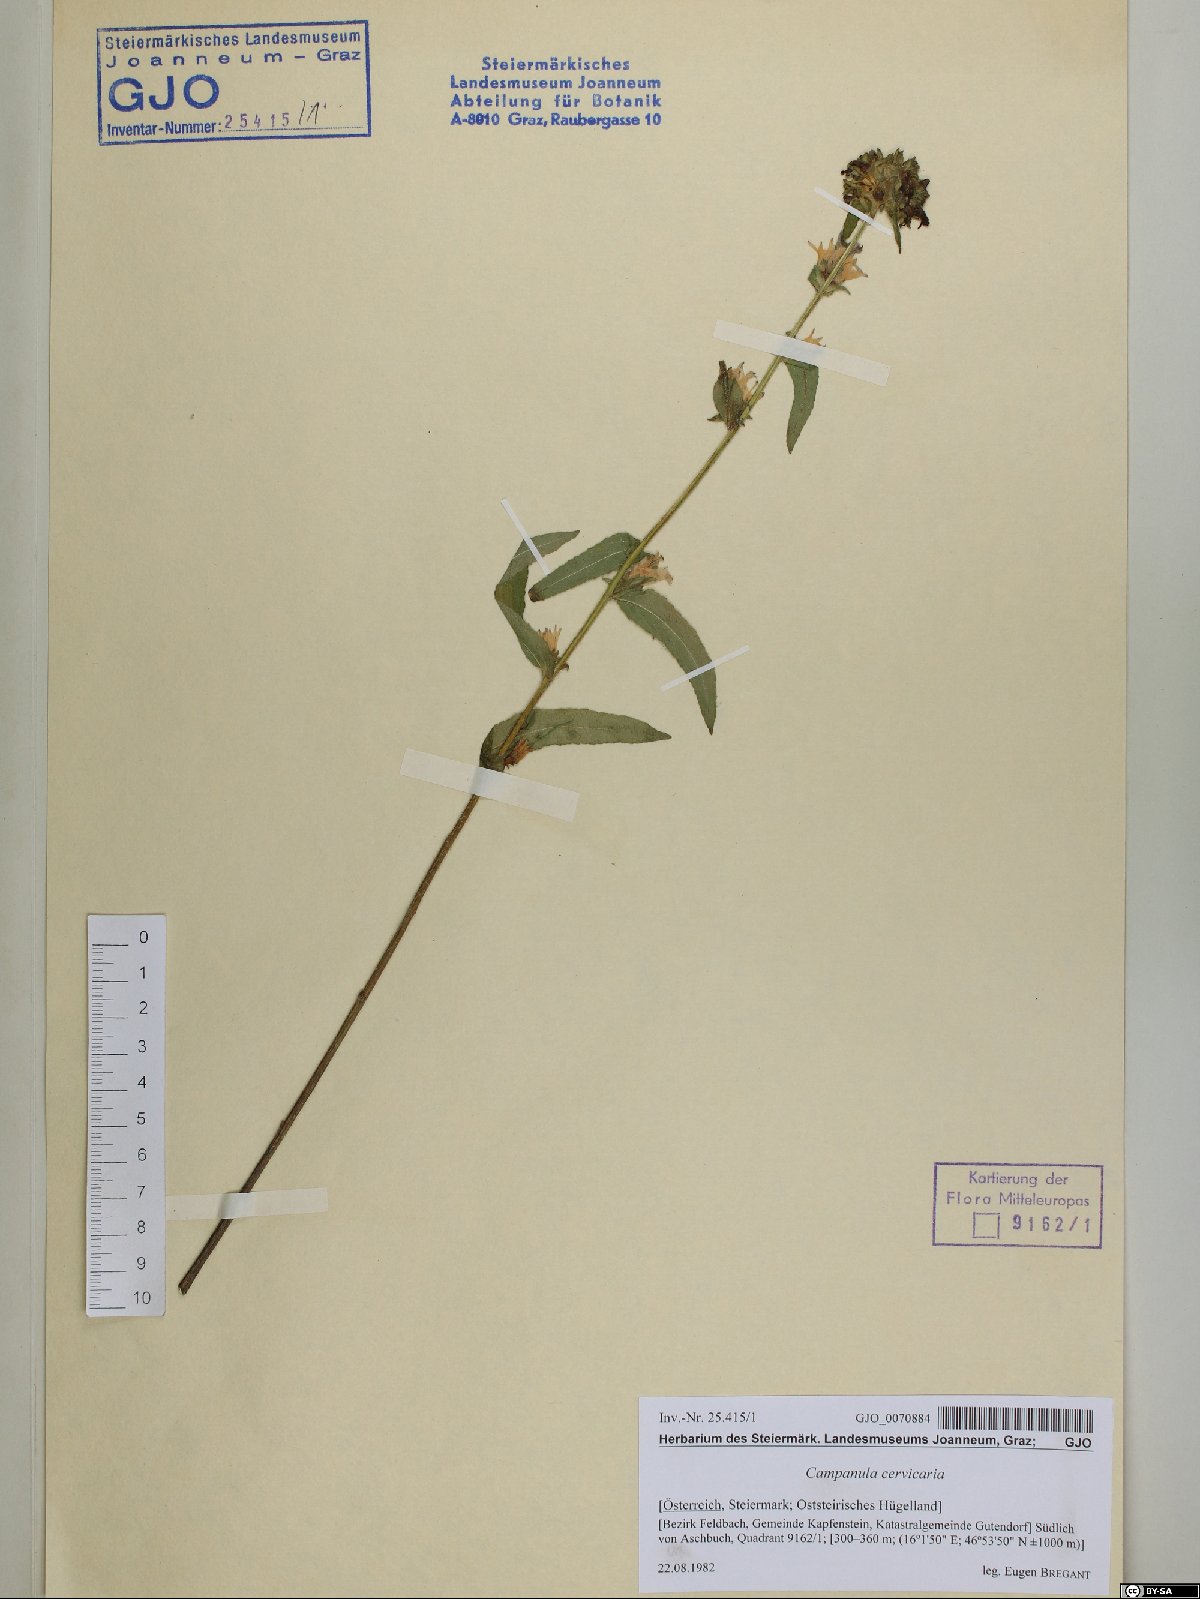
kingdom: Plantae
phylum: Tracheophyta
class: Magnoliopsida
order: Asterales
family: Campanulaceae
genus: Campanula
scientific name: Campanula cervicaria
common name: Bristly bellflower
